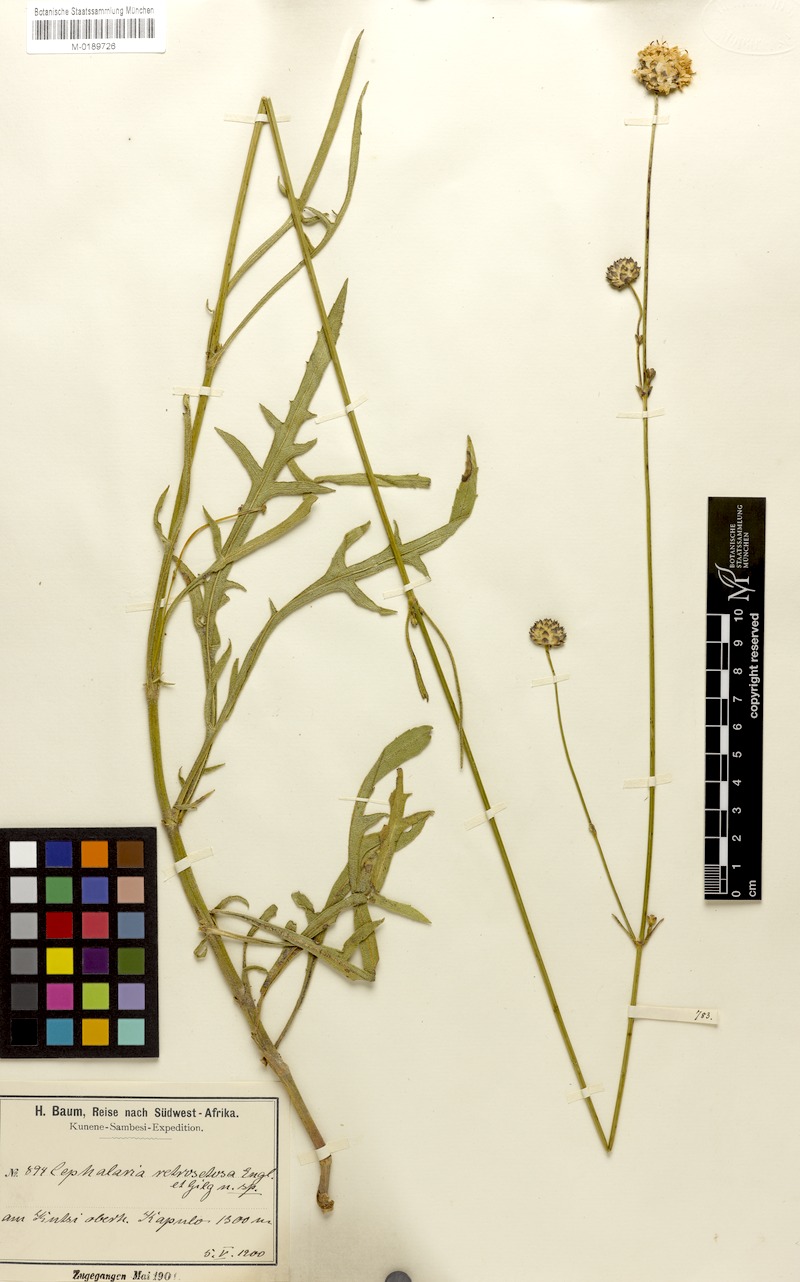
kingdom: Plantae
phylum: Tracheophyta
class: Magnoliopsida
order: Dipsacales
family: Caprifoliaceae
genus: Cephalaria
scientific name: Cephalaria retrosetosa
